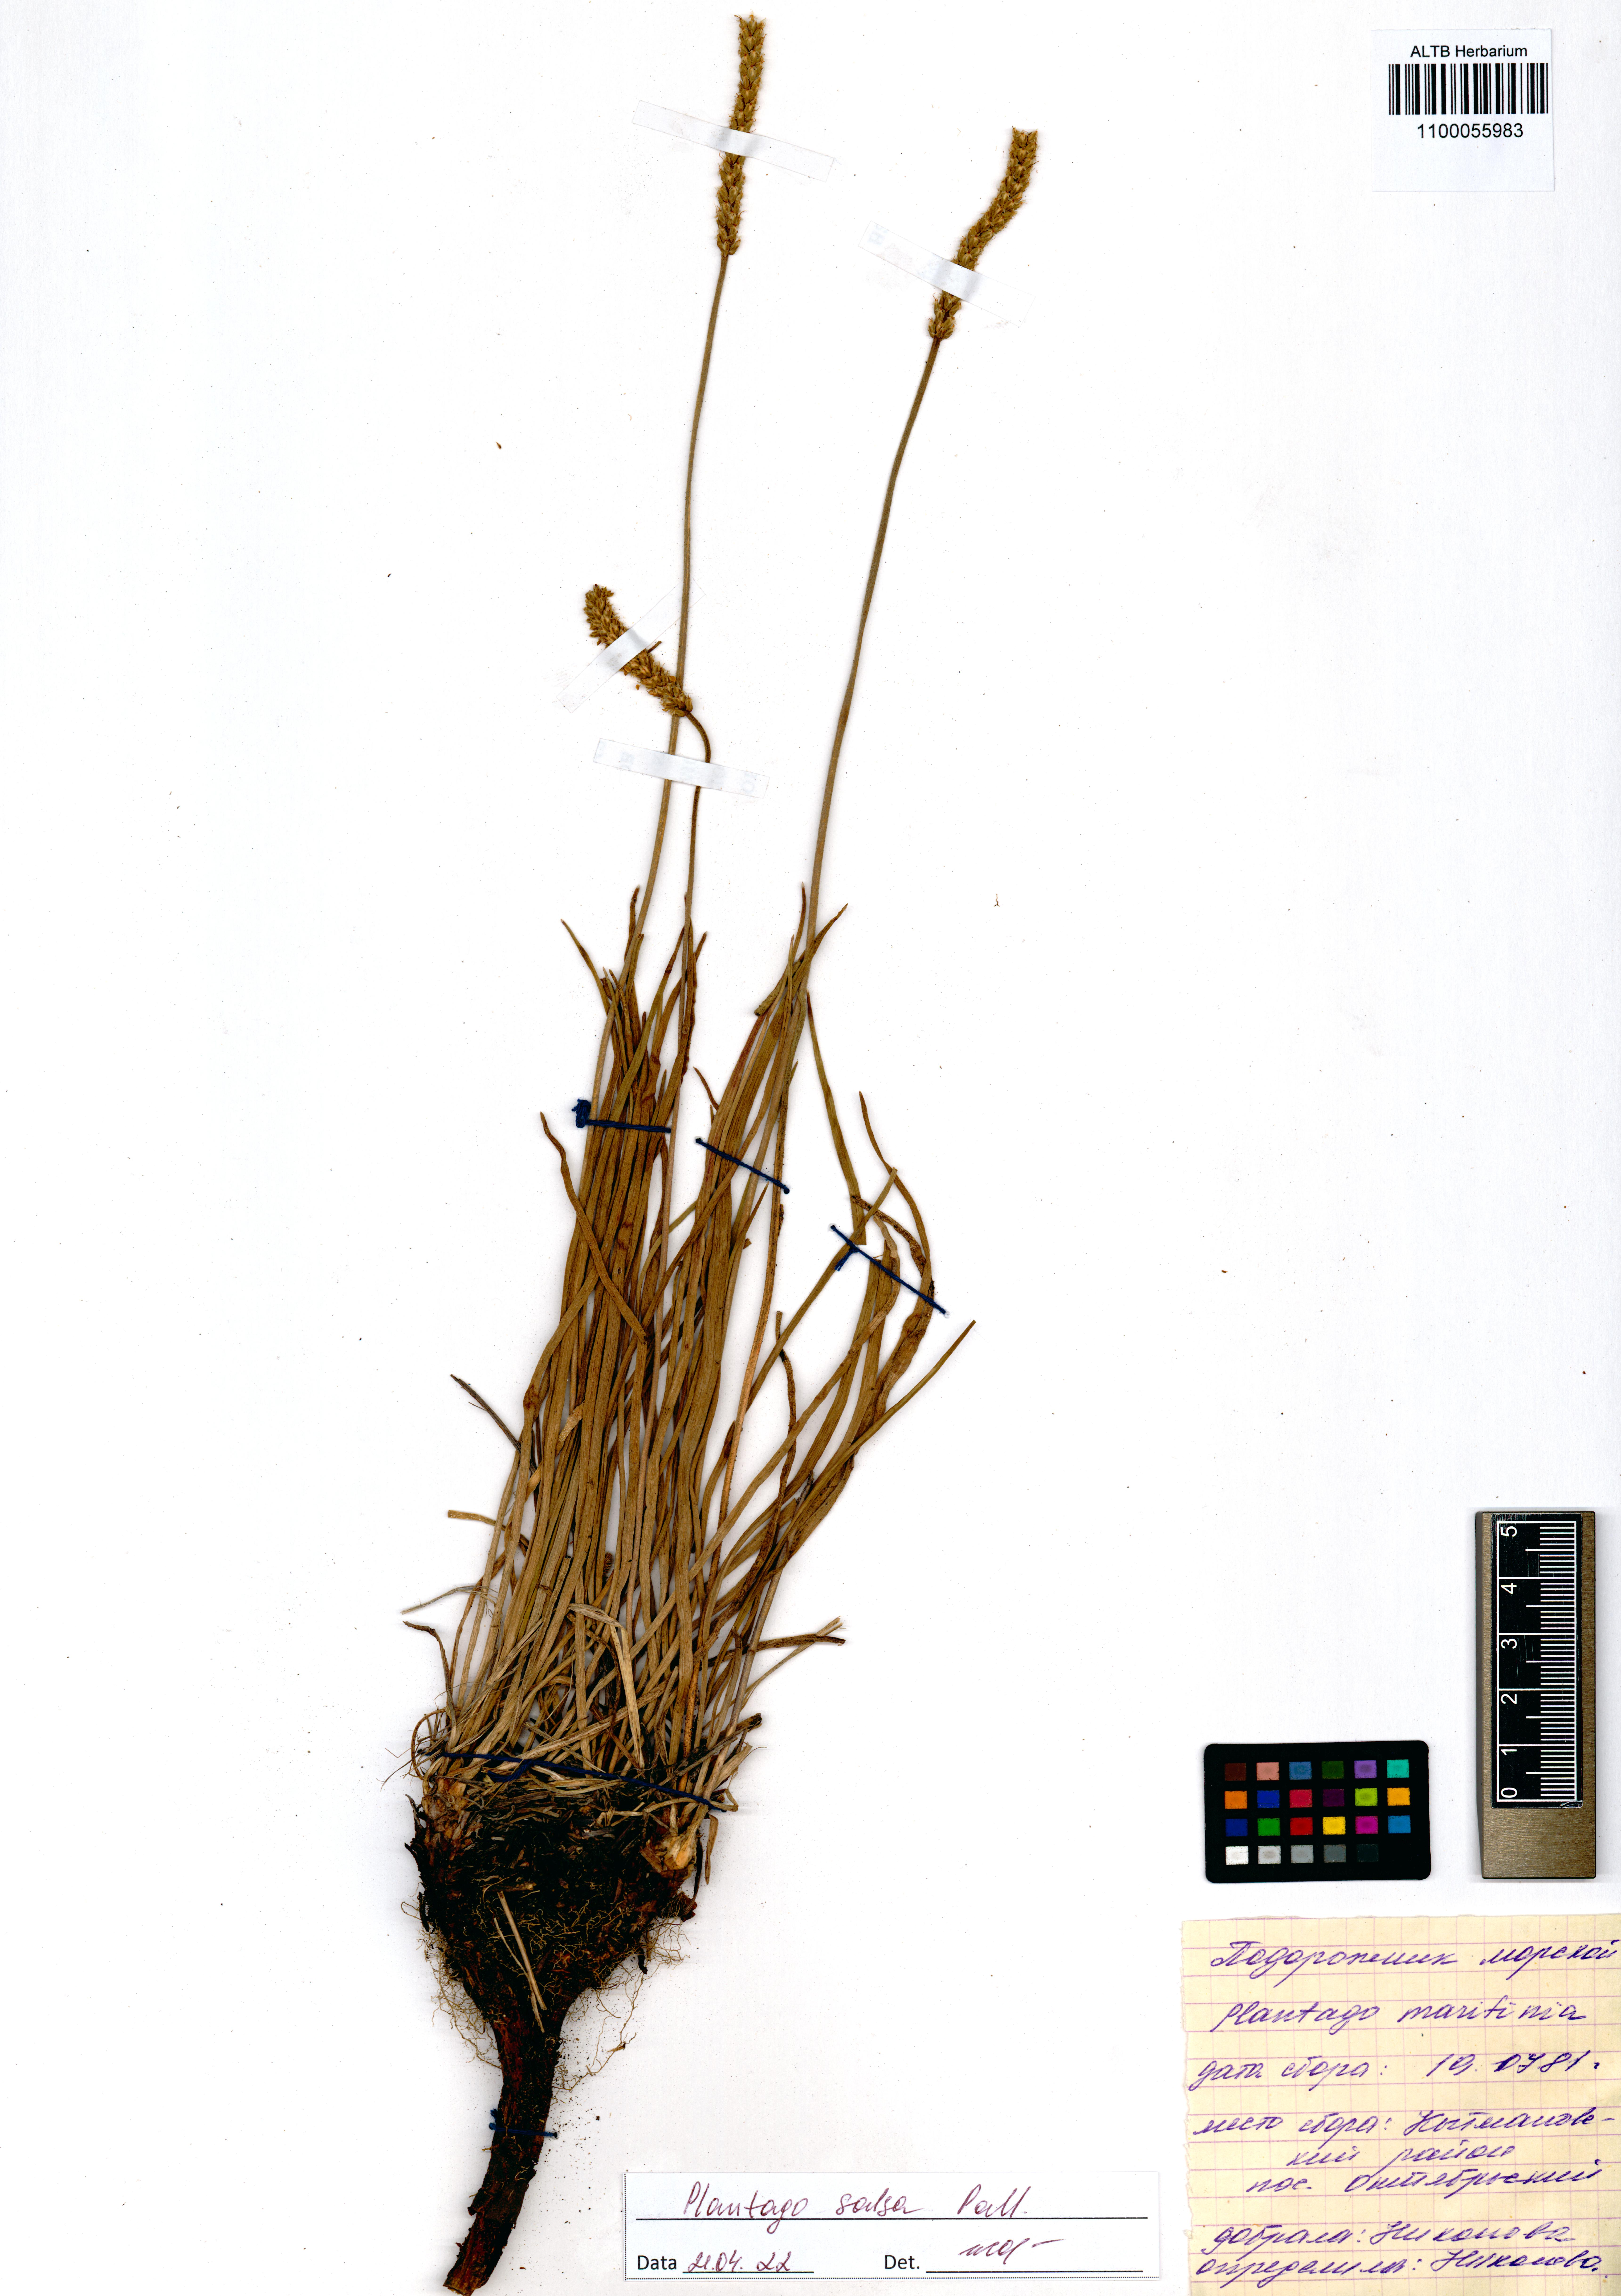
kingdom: Plantae
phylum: Tracheophyta
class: Magnoliopsida
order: Lamiales
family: Plantaginaceae
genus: Plantago
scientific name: Plantago salsa
